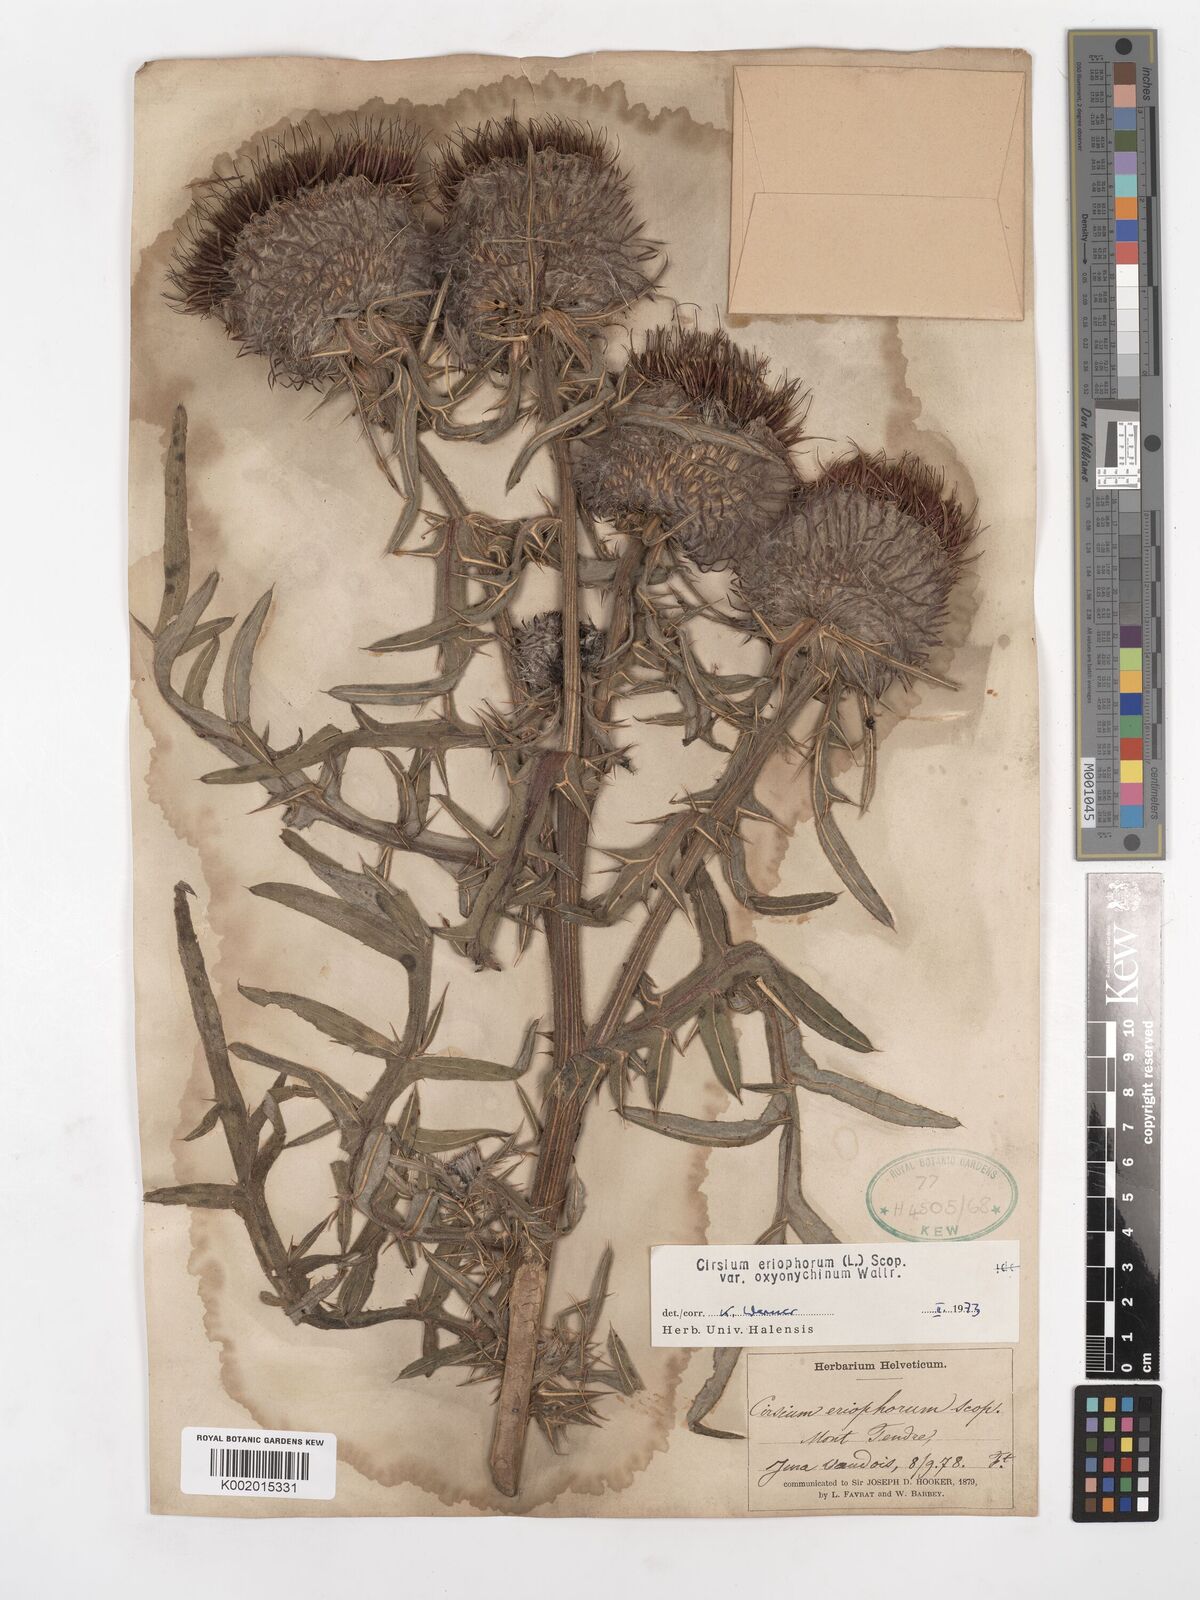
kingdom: Plantae
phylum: Tracheophyta
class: Magnoliopsida
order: Asterales
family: Asteraceae
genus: Lophiolepis
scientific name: Lophiolepis eriophora
